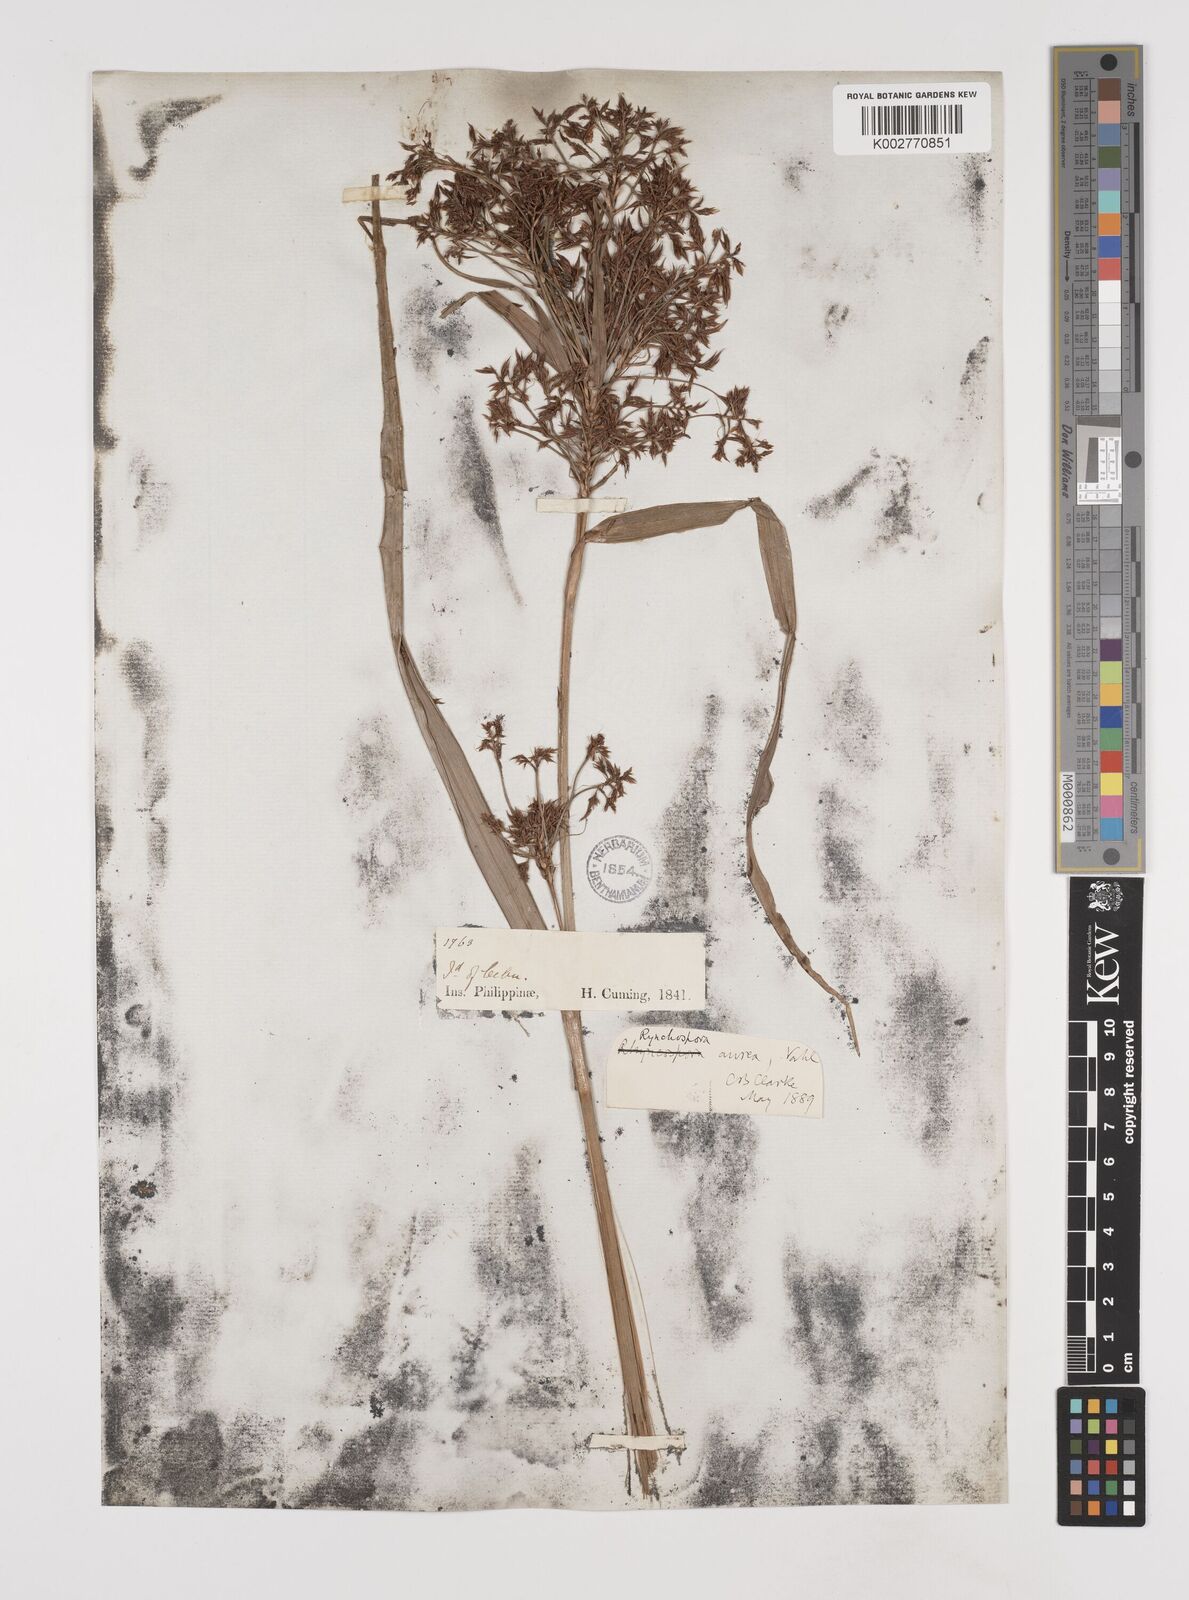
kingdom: Plantae
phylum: Tracheophyta
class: Liliopsida
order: Poales
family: Cyperaceae
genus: Rhynchospora
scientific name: Rhynchospora corymbosa
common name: Golden beak sedge
